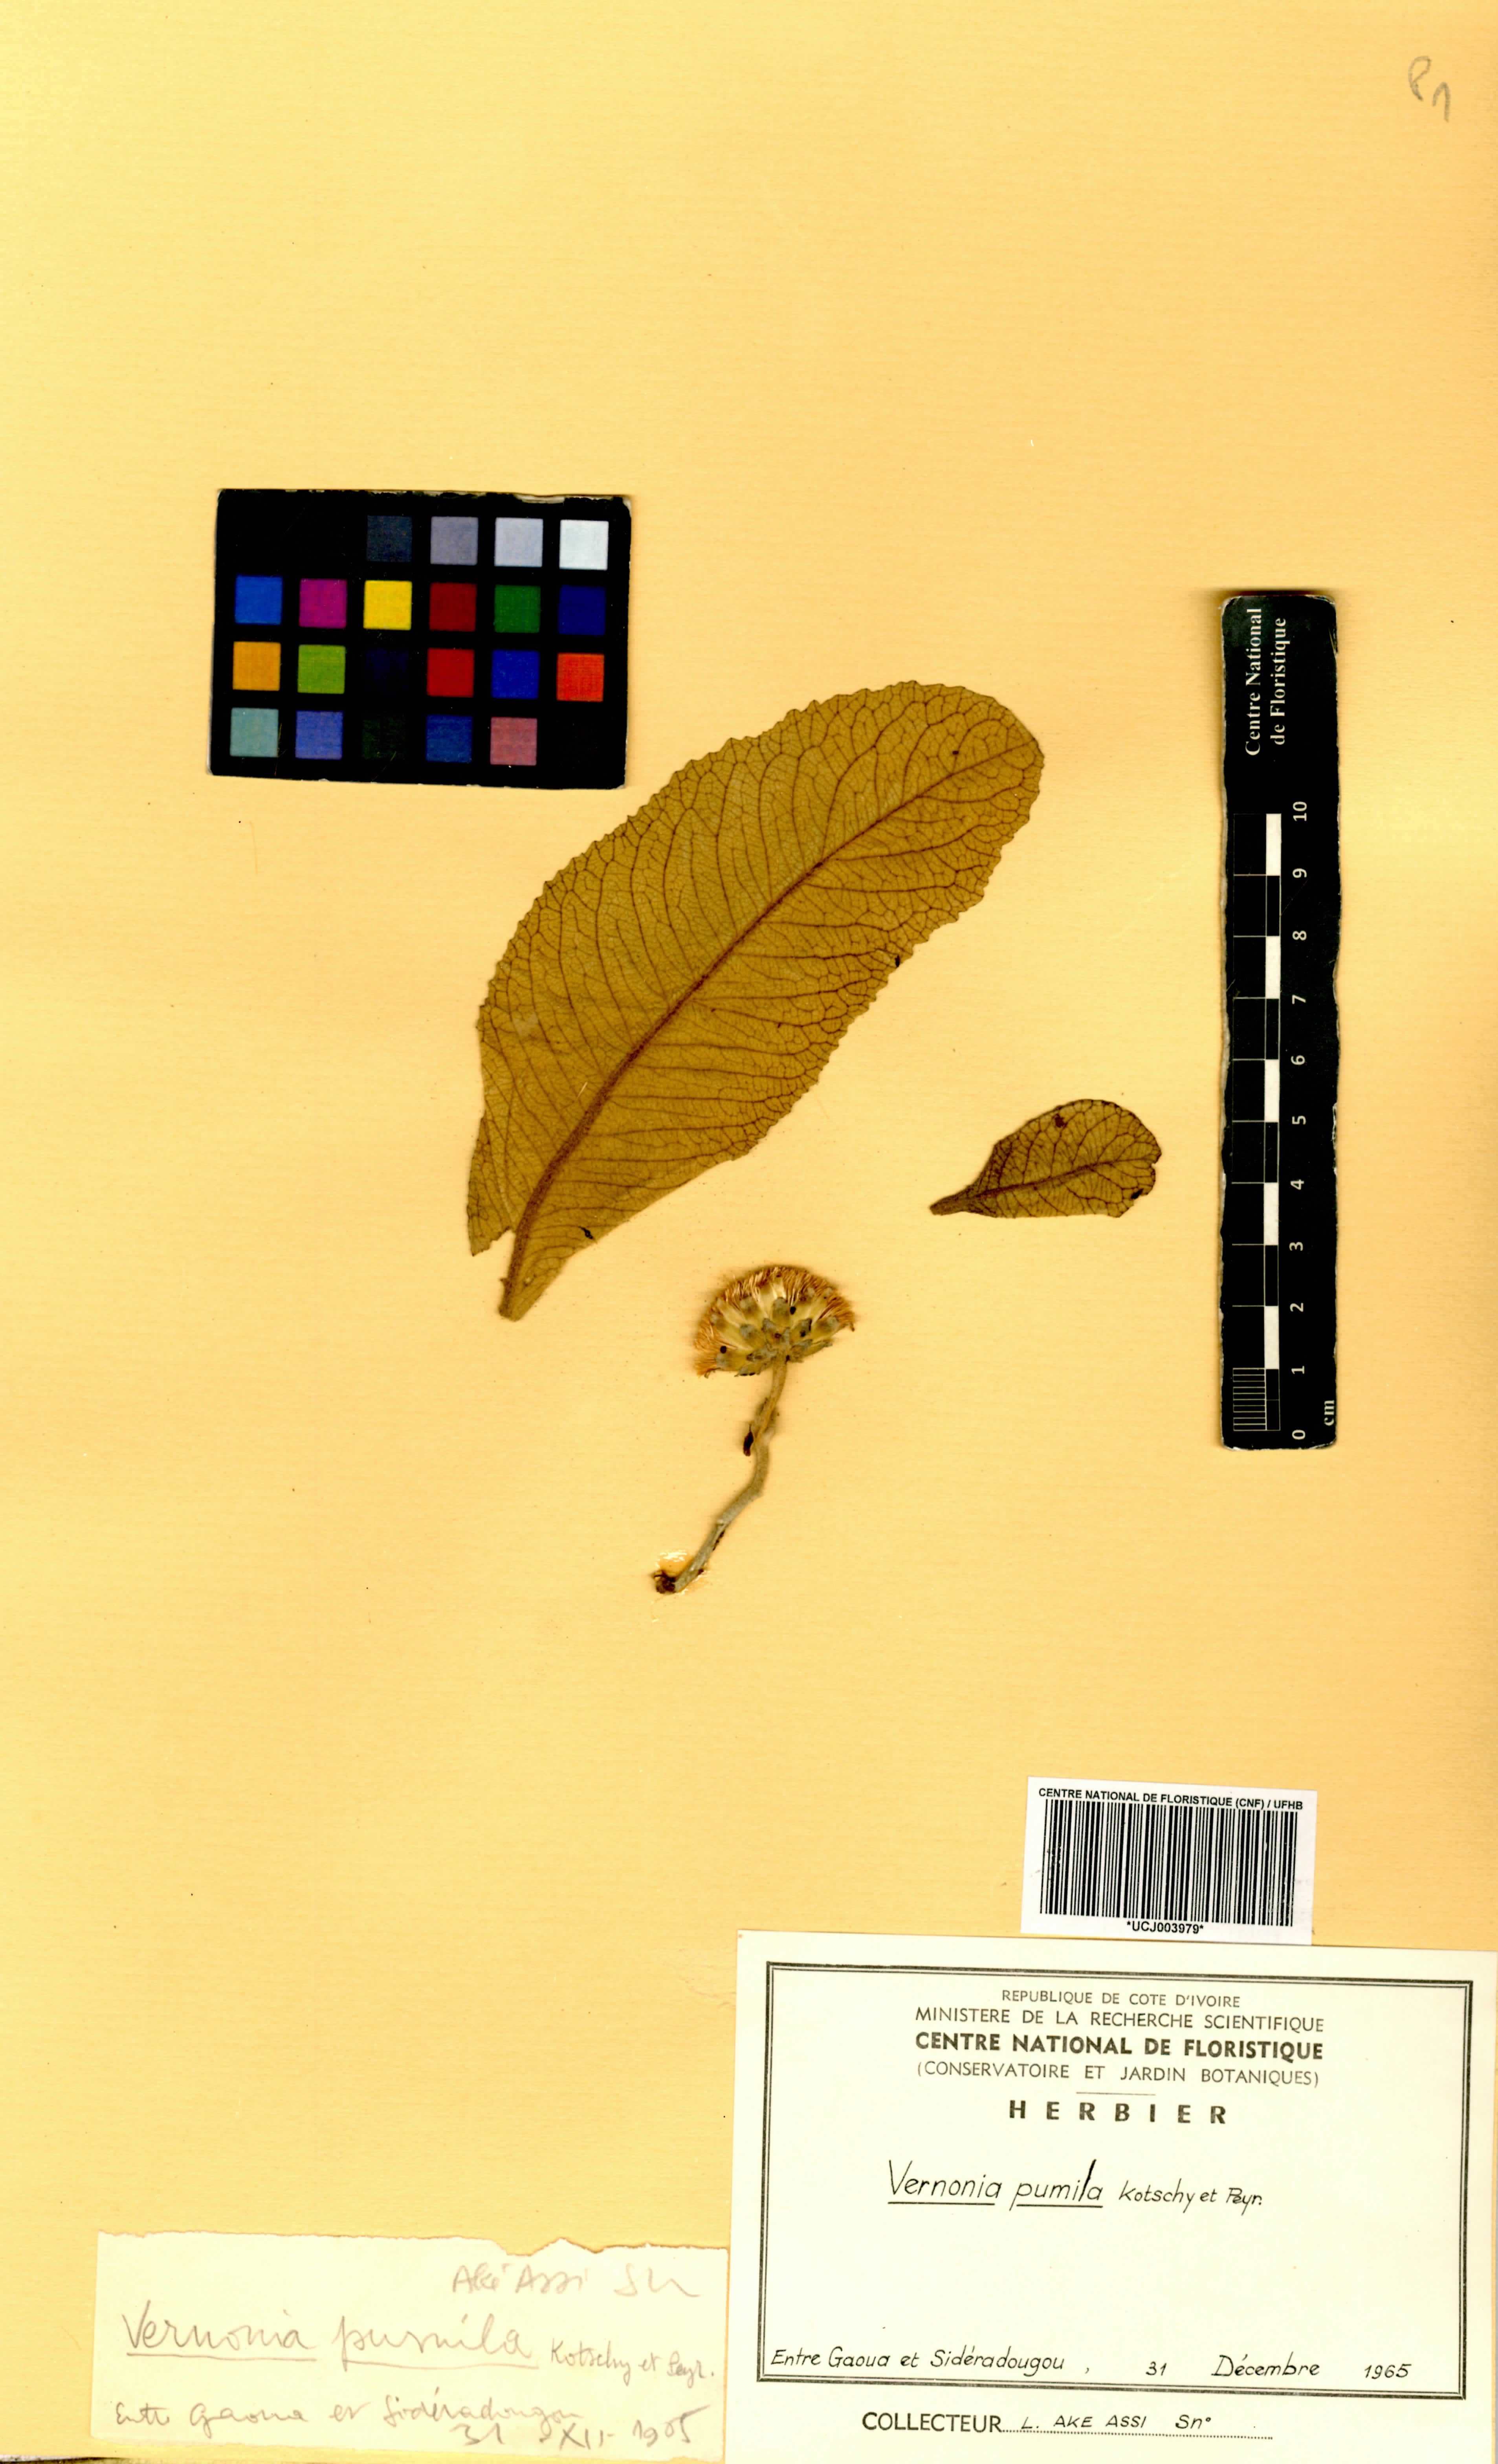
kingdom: Plantae
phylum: Tracheophyta
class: Magnoliopsida
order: Asterales
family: Asteraceae
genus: Baccharoides
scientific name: Baccharoides pumila
